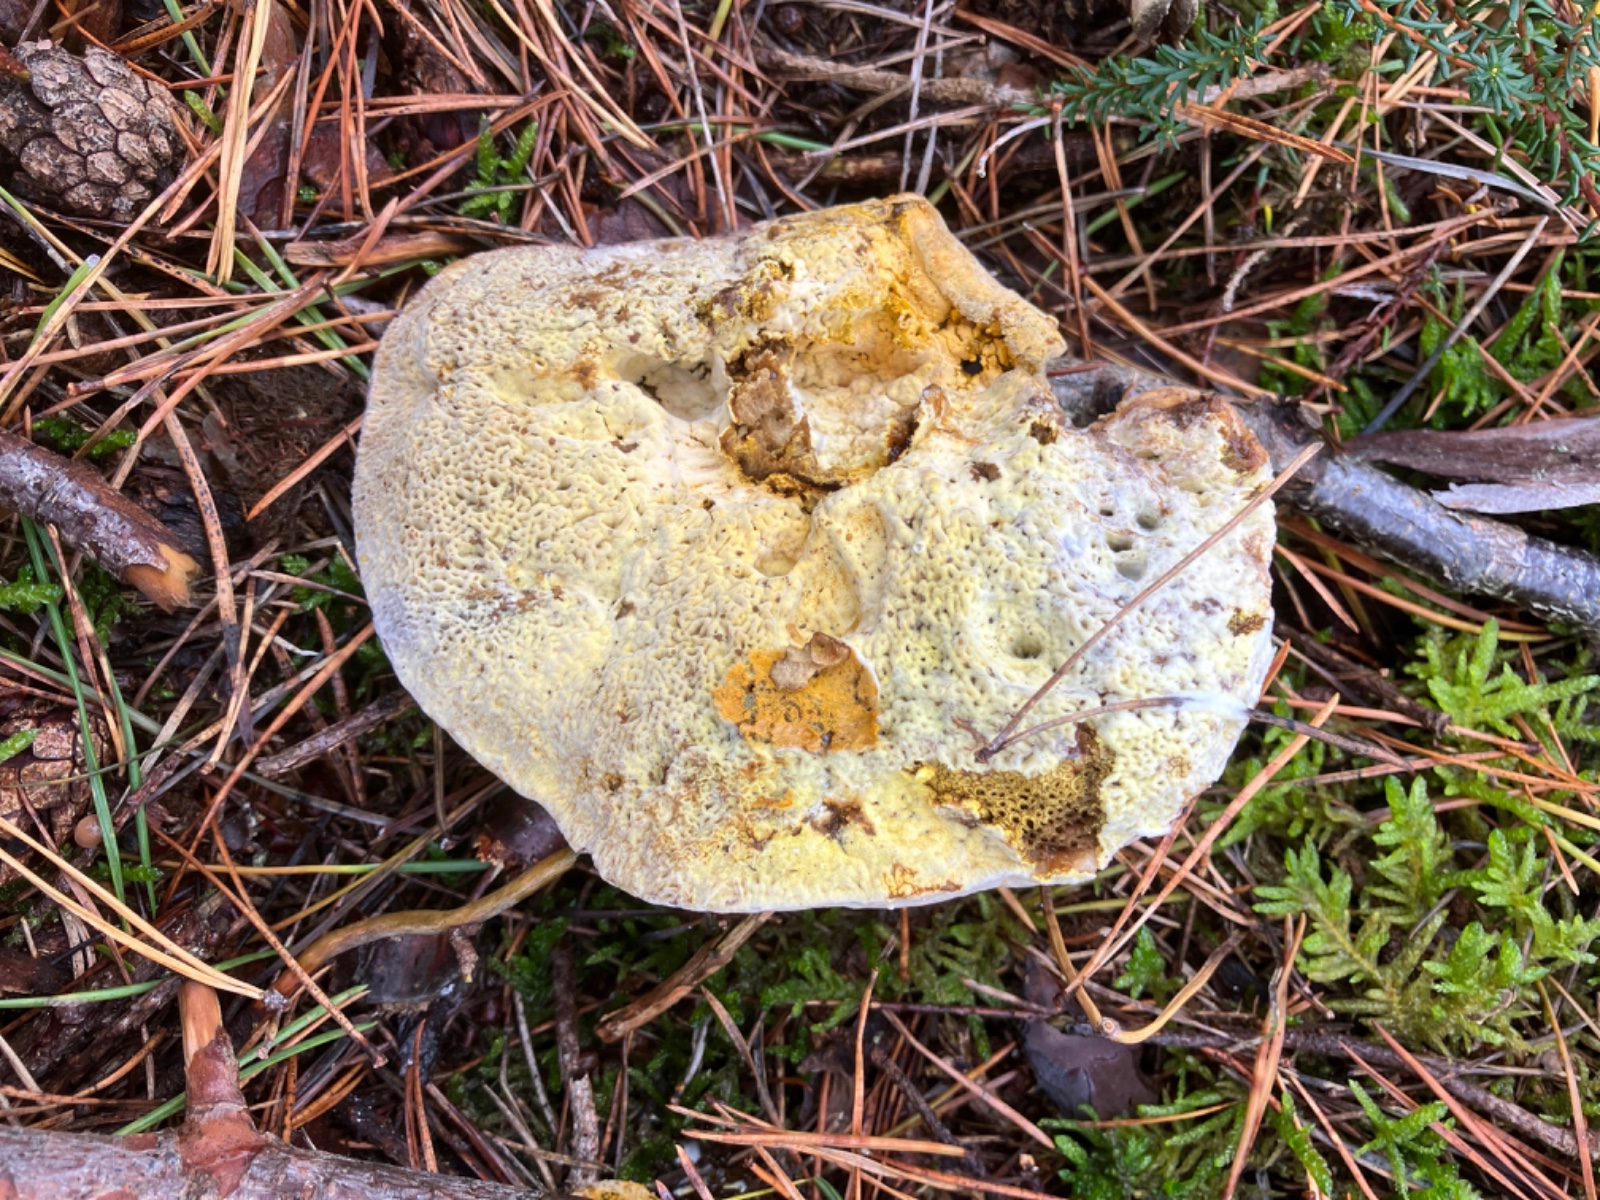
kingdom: Fungi
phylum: Ascomycota
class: Sordariomycetes
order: Hypocreales
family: Hypocreaceae
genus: Hypomyces
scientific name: Hypomyces chrysospermus
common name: gulskimmel-snylteskorpe
